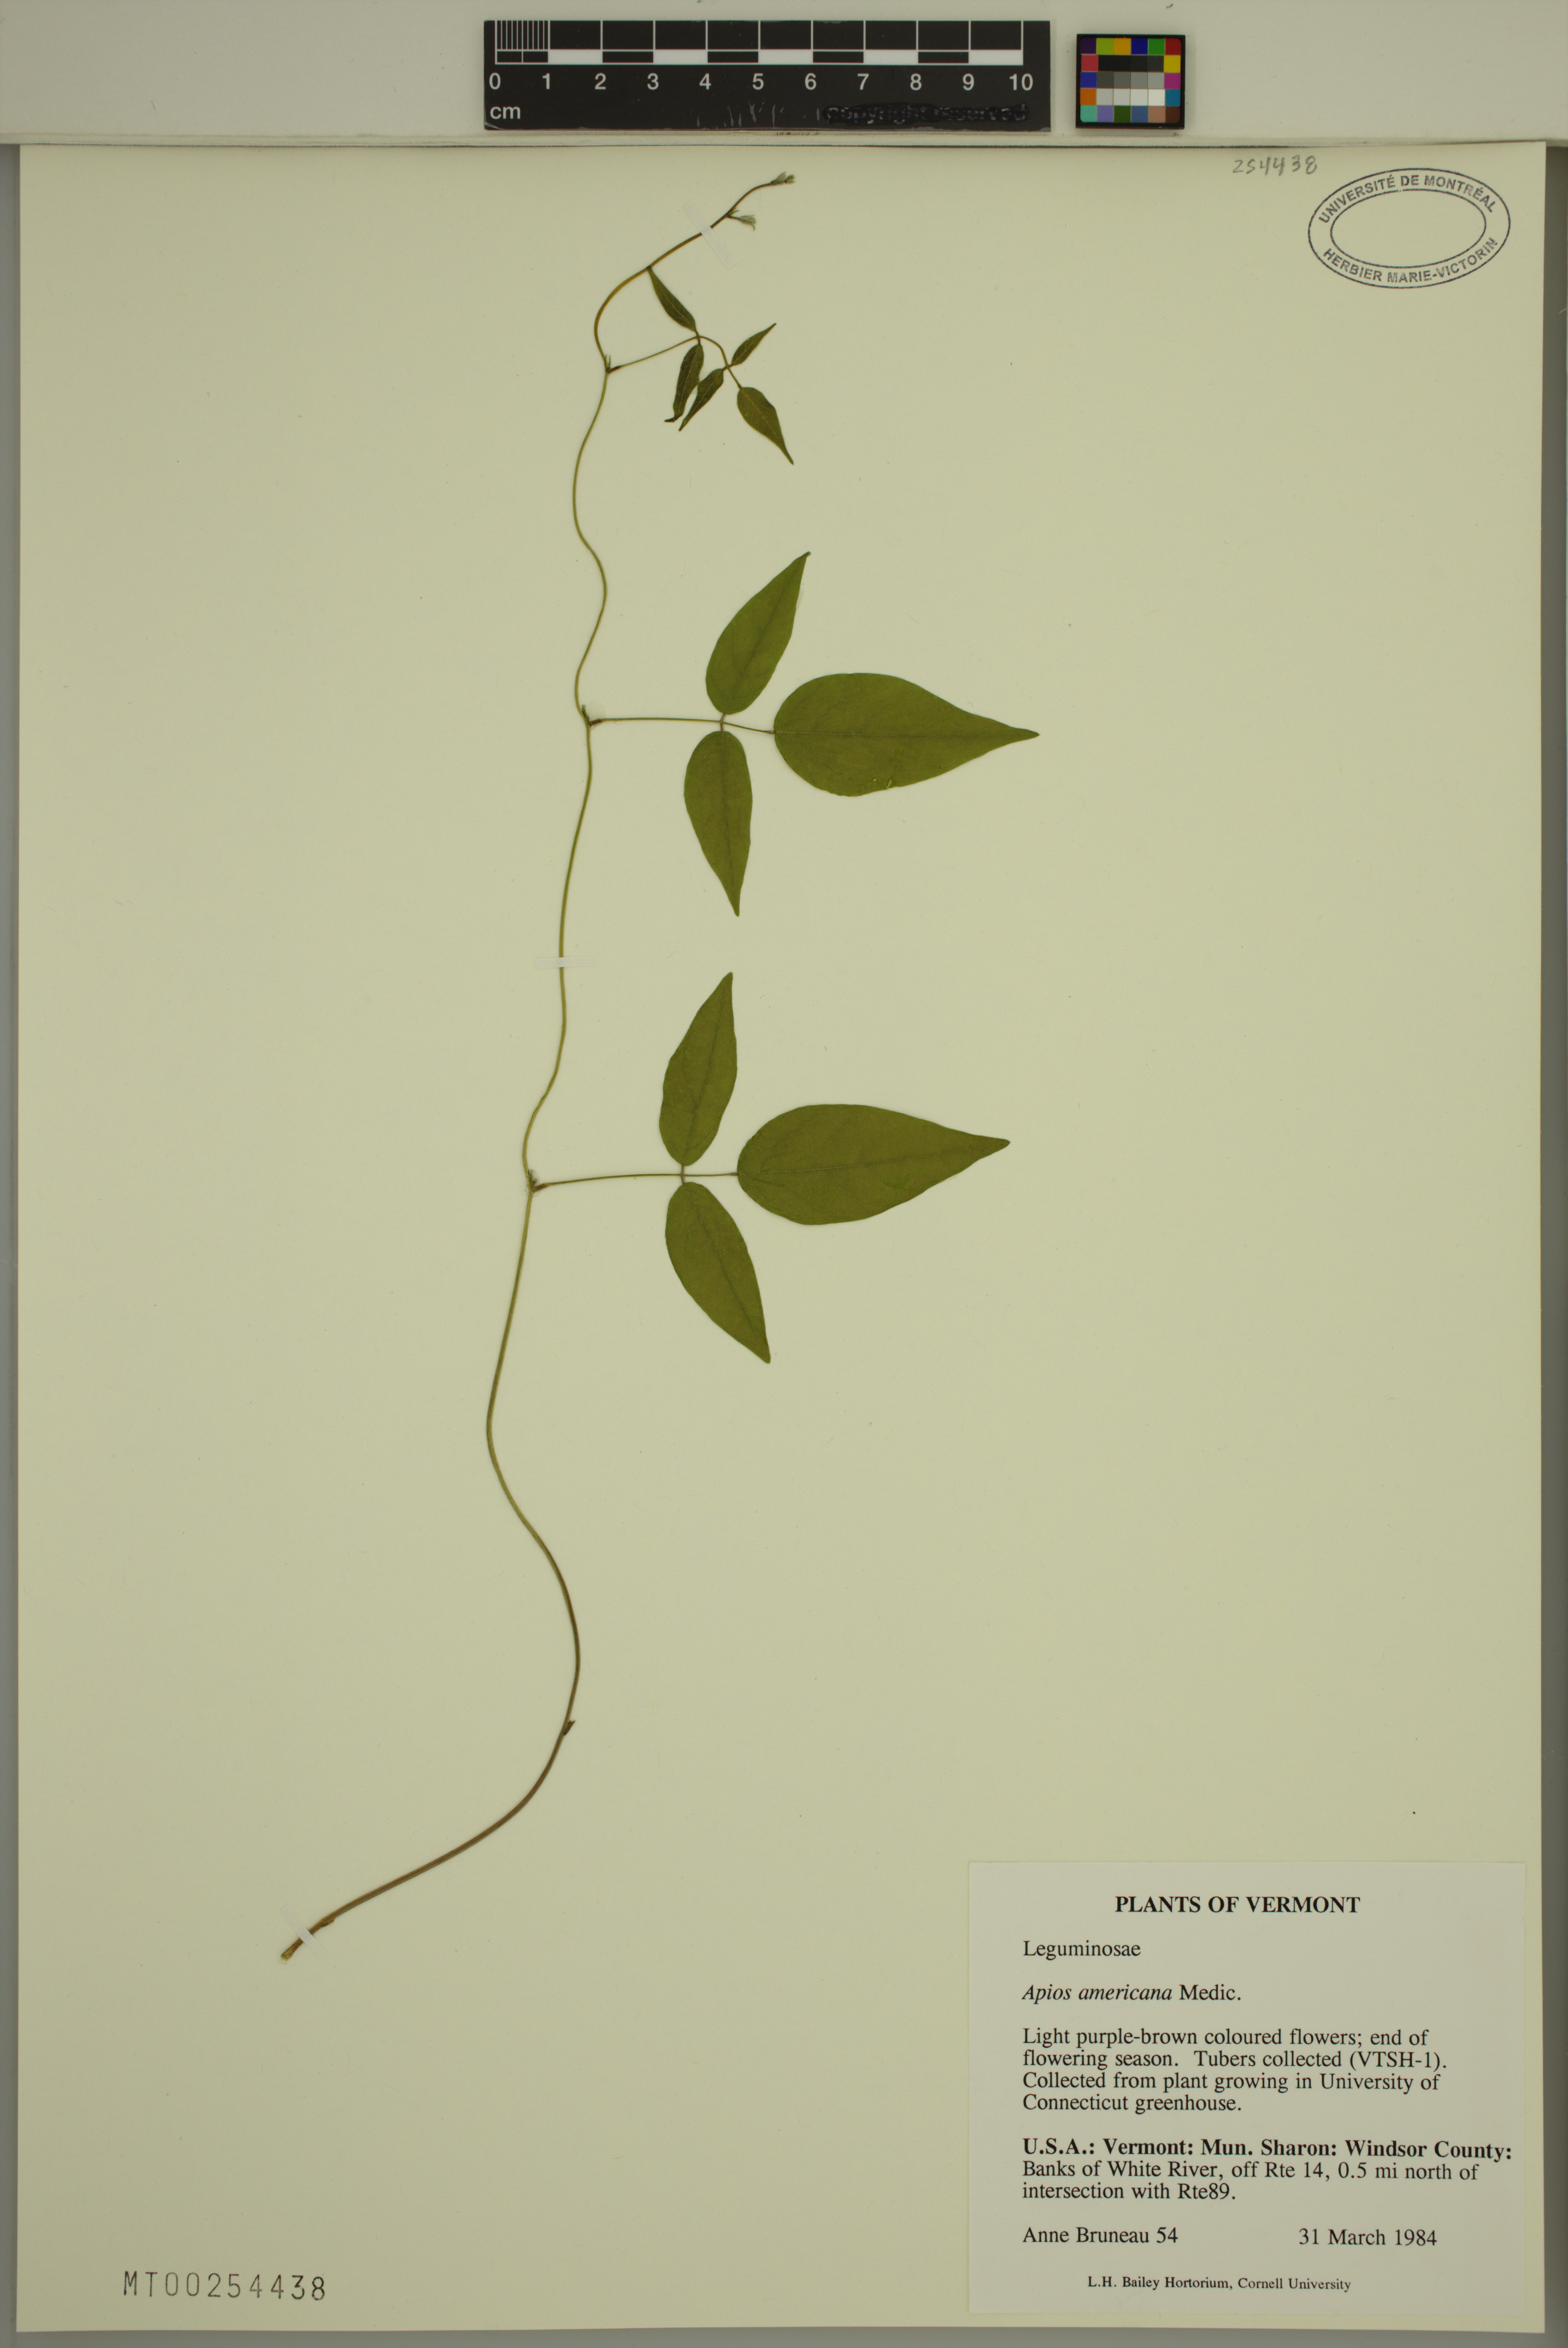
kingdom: Plantae
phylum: Tracheophyta
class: Magnoliopsida
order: Fabales
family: Fabaceae
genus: Apios
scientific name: Apios americana
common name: American potato-bean
